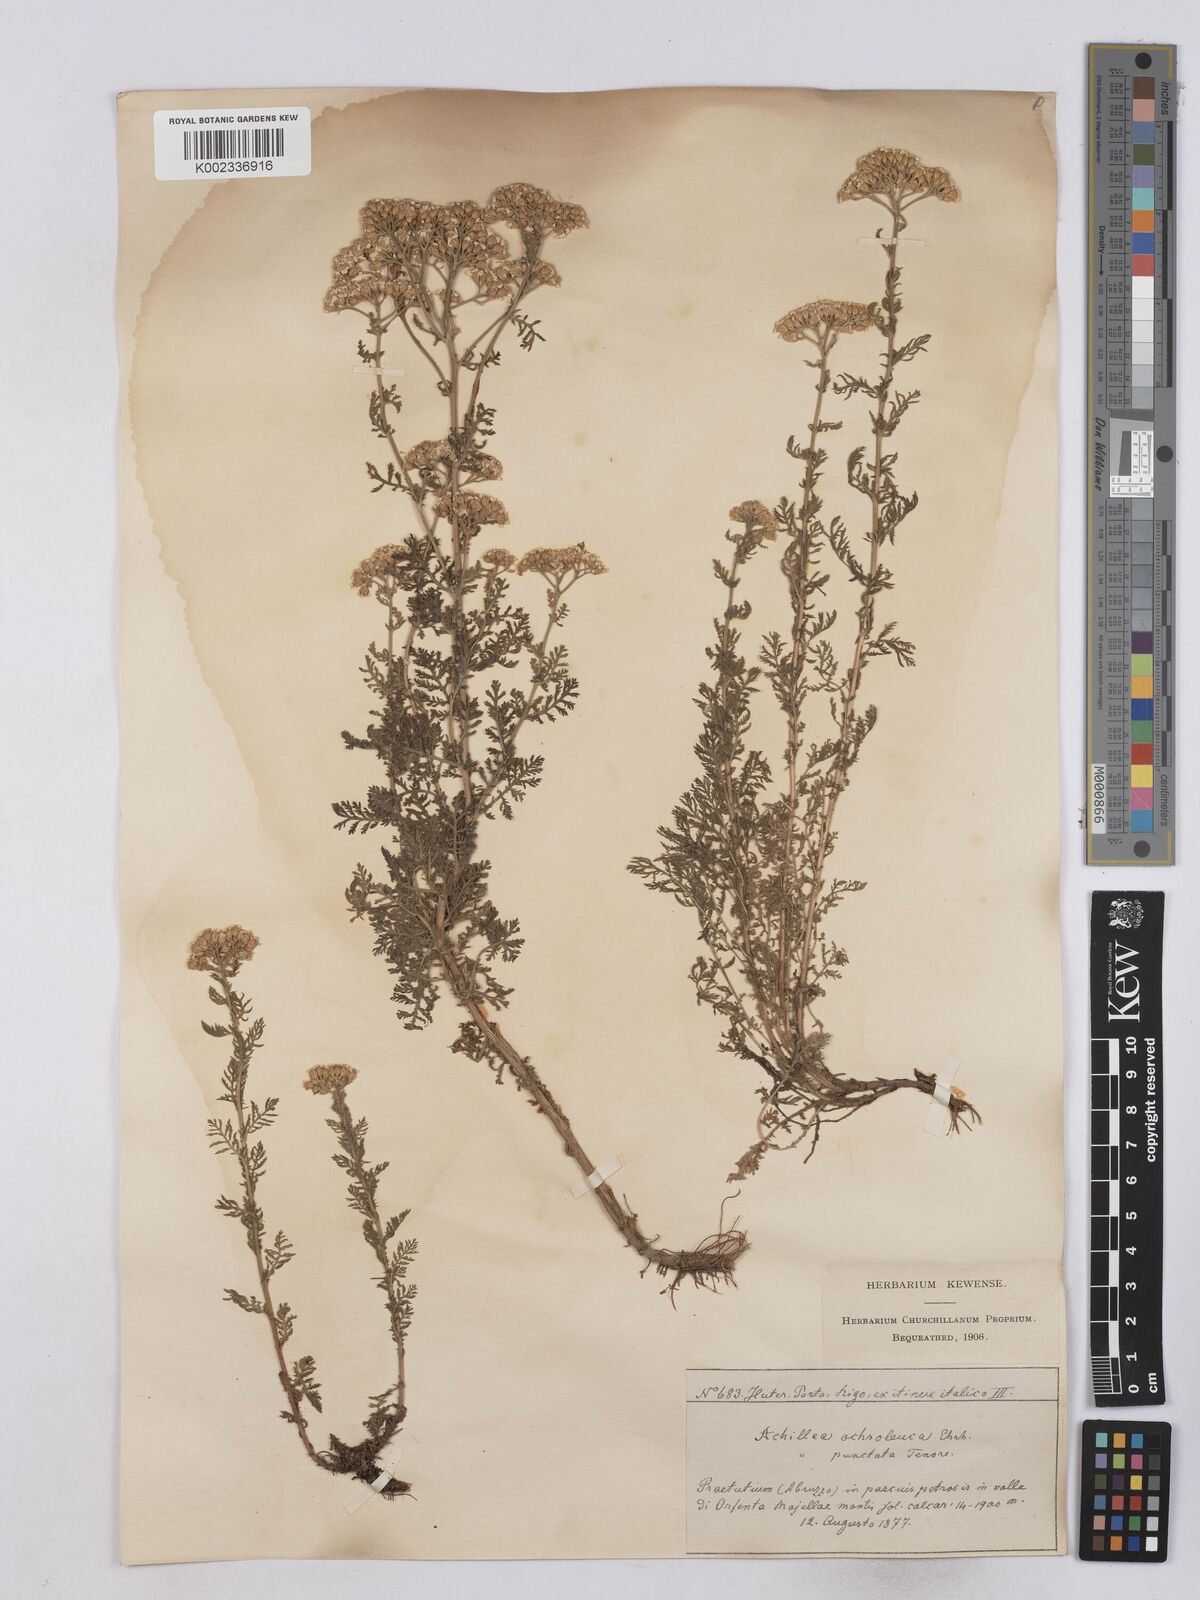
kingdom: Plantae
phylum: Tracheophyta
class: Magnoliopsida
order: Asterales
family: Asteraceae
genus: Achillea
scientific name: Achillea odorata
